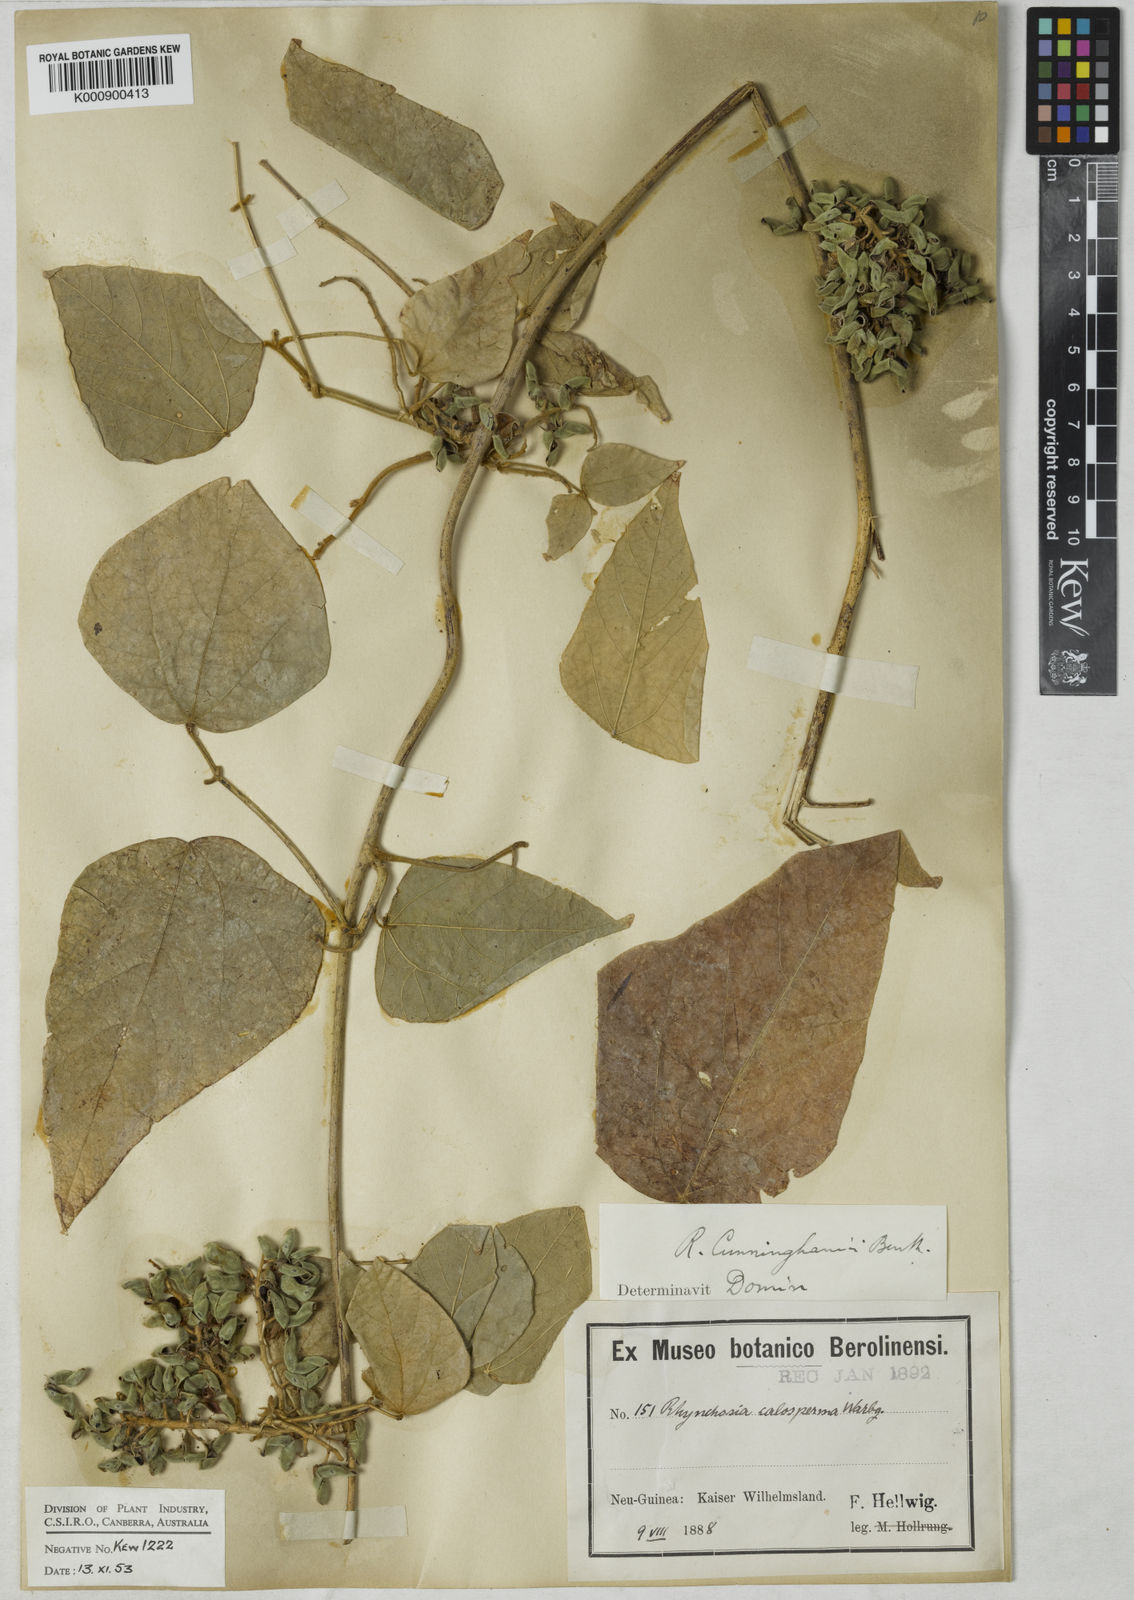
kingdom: Plantae
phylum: Tracheophyta
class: Magnoliopsida
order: Fabales
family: Fabaceae
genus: Rhynchosia
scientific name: Rhynchosia acuminatissima
